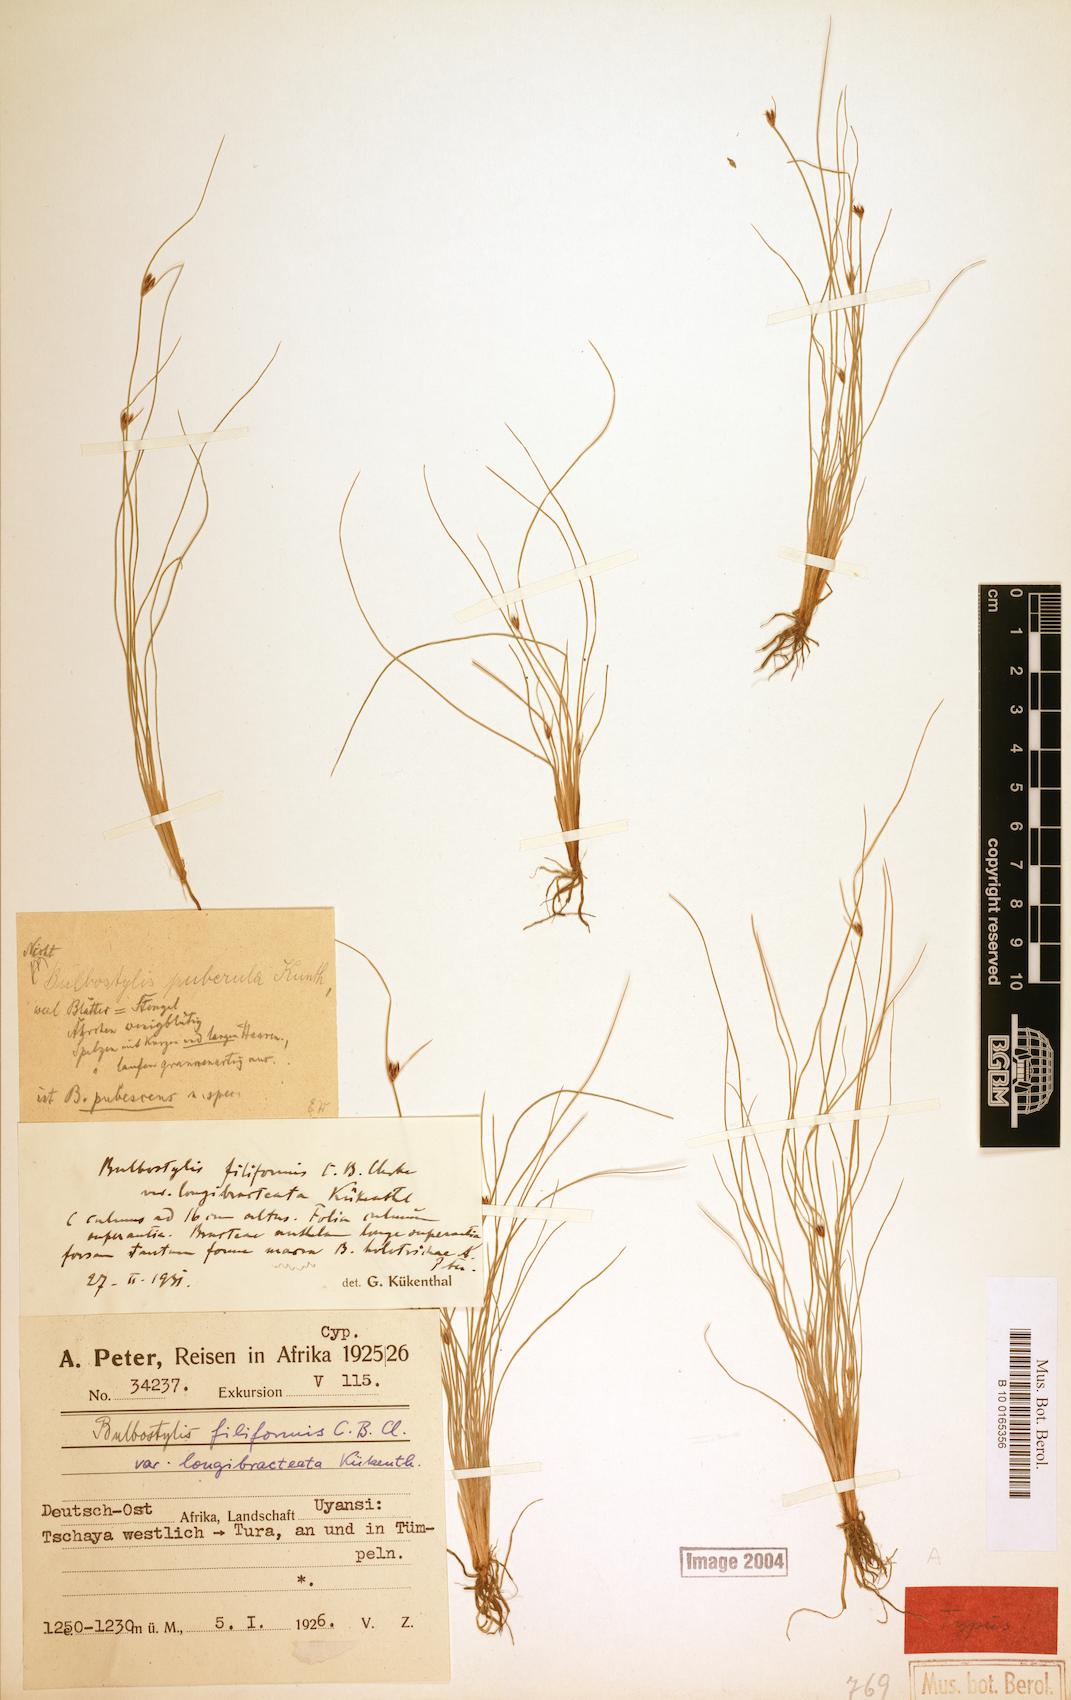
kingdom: Plantae
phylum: Tracheophyta
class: Liliopsida
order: Poales
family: Cyperaceae
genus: Bulbostylis
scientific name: Bulbostylis hispidula
